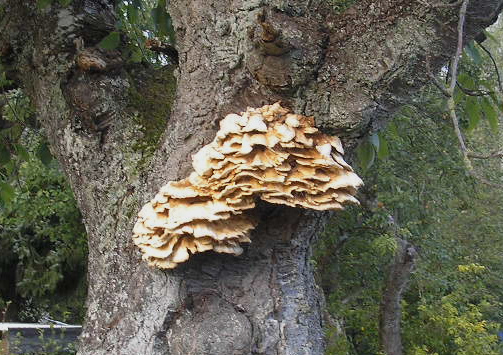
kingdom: Fungi
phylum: Basidiomycota
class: Agaricomycetes
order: Polyporales
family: Laetiporaceae
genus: Laetiporus
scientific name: Laetiporus sulphureus
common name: svovlporesvamp
